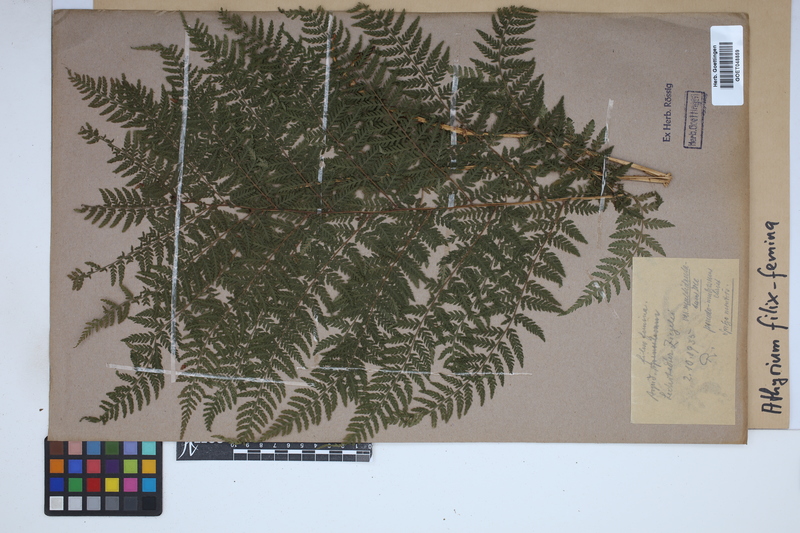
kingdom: Plantae
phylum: Tracheophyta
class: Polypodiopsida
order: Polypodiales
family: Athyriaceae
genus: Athyrium
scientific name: Athyrium filix-femina
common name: Lady fern
